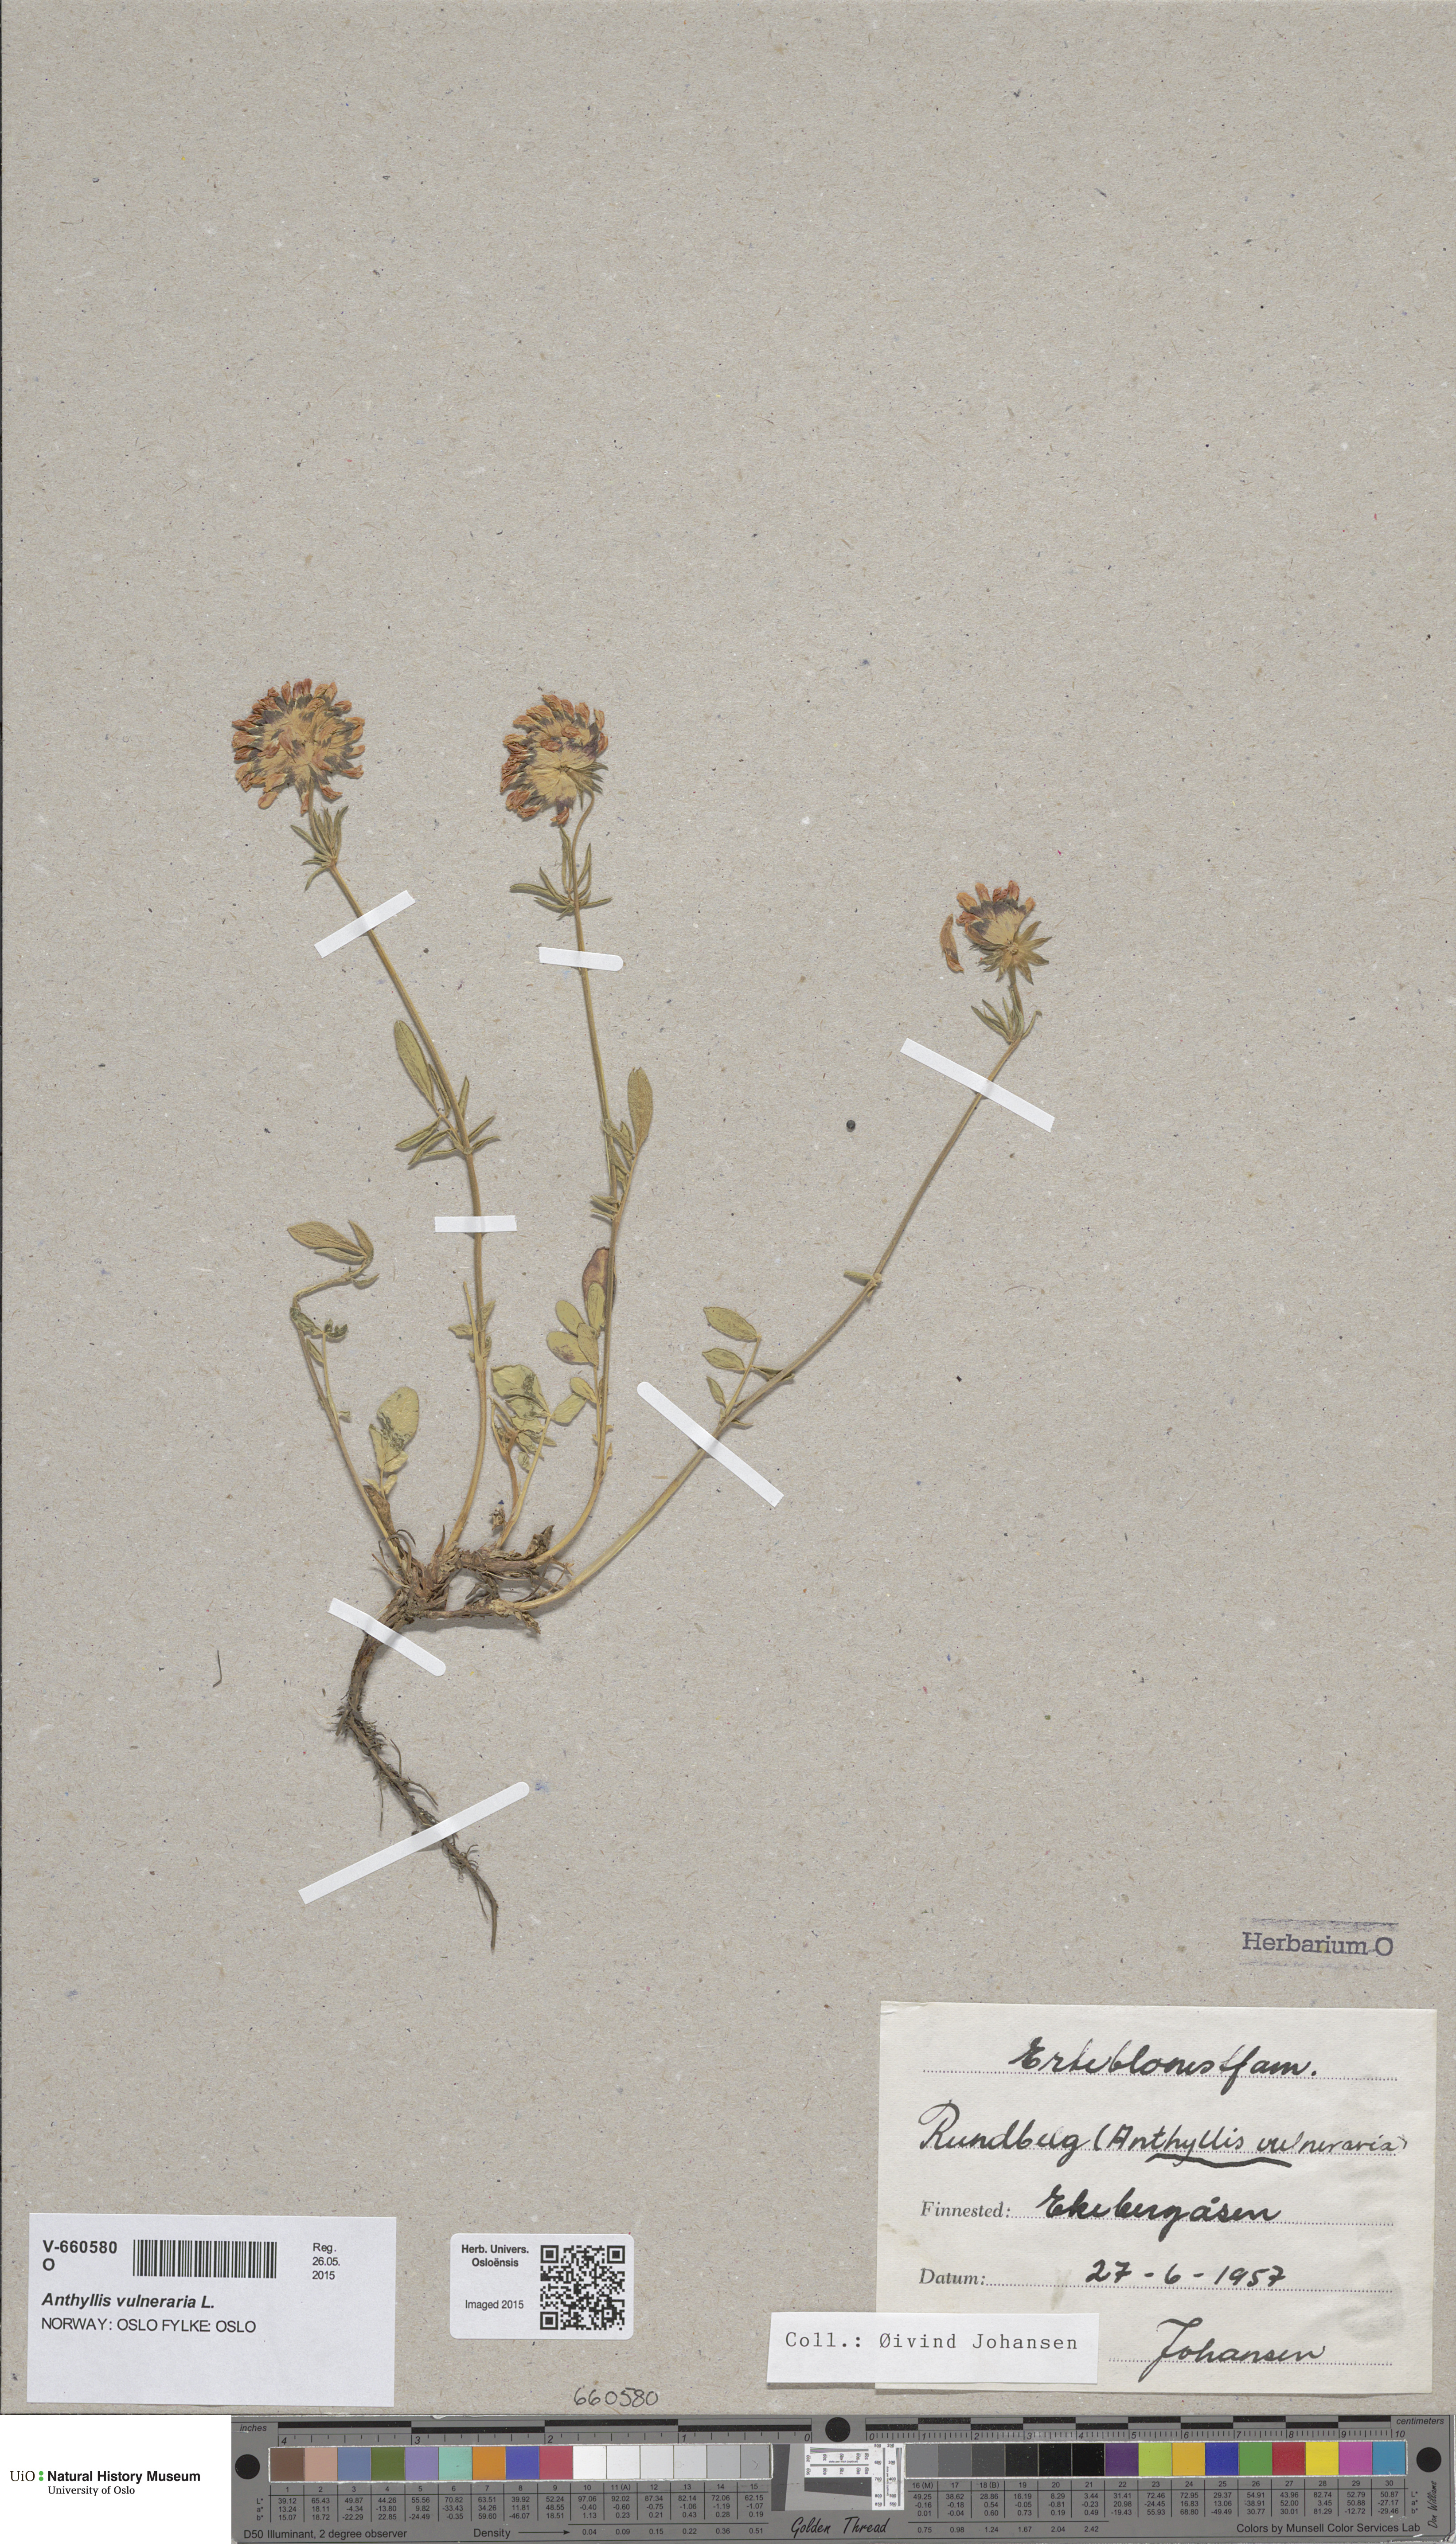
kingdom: Plantae
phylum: Tracheophyta
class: Magnoliopsida
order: Fabales
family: Fabaceae
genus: Anthyllis
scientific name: Anthyllis vulneraria
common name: Kidney vetch
